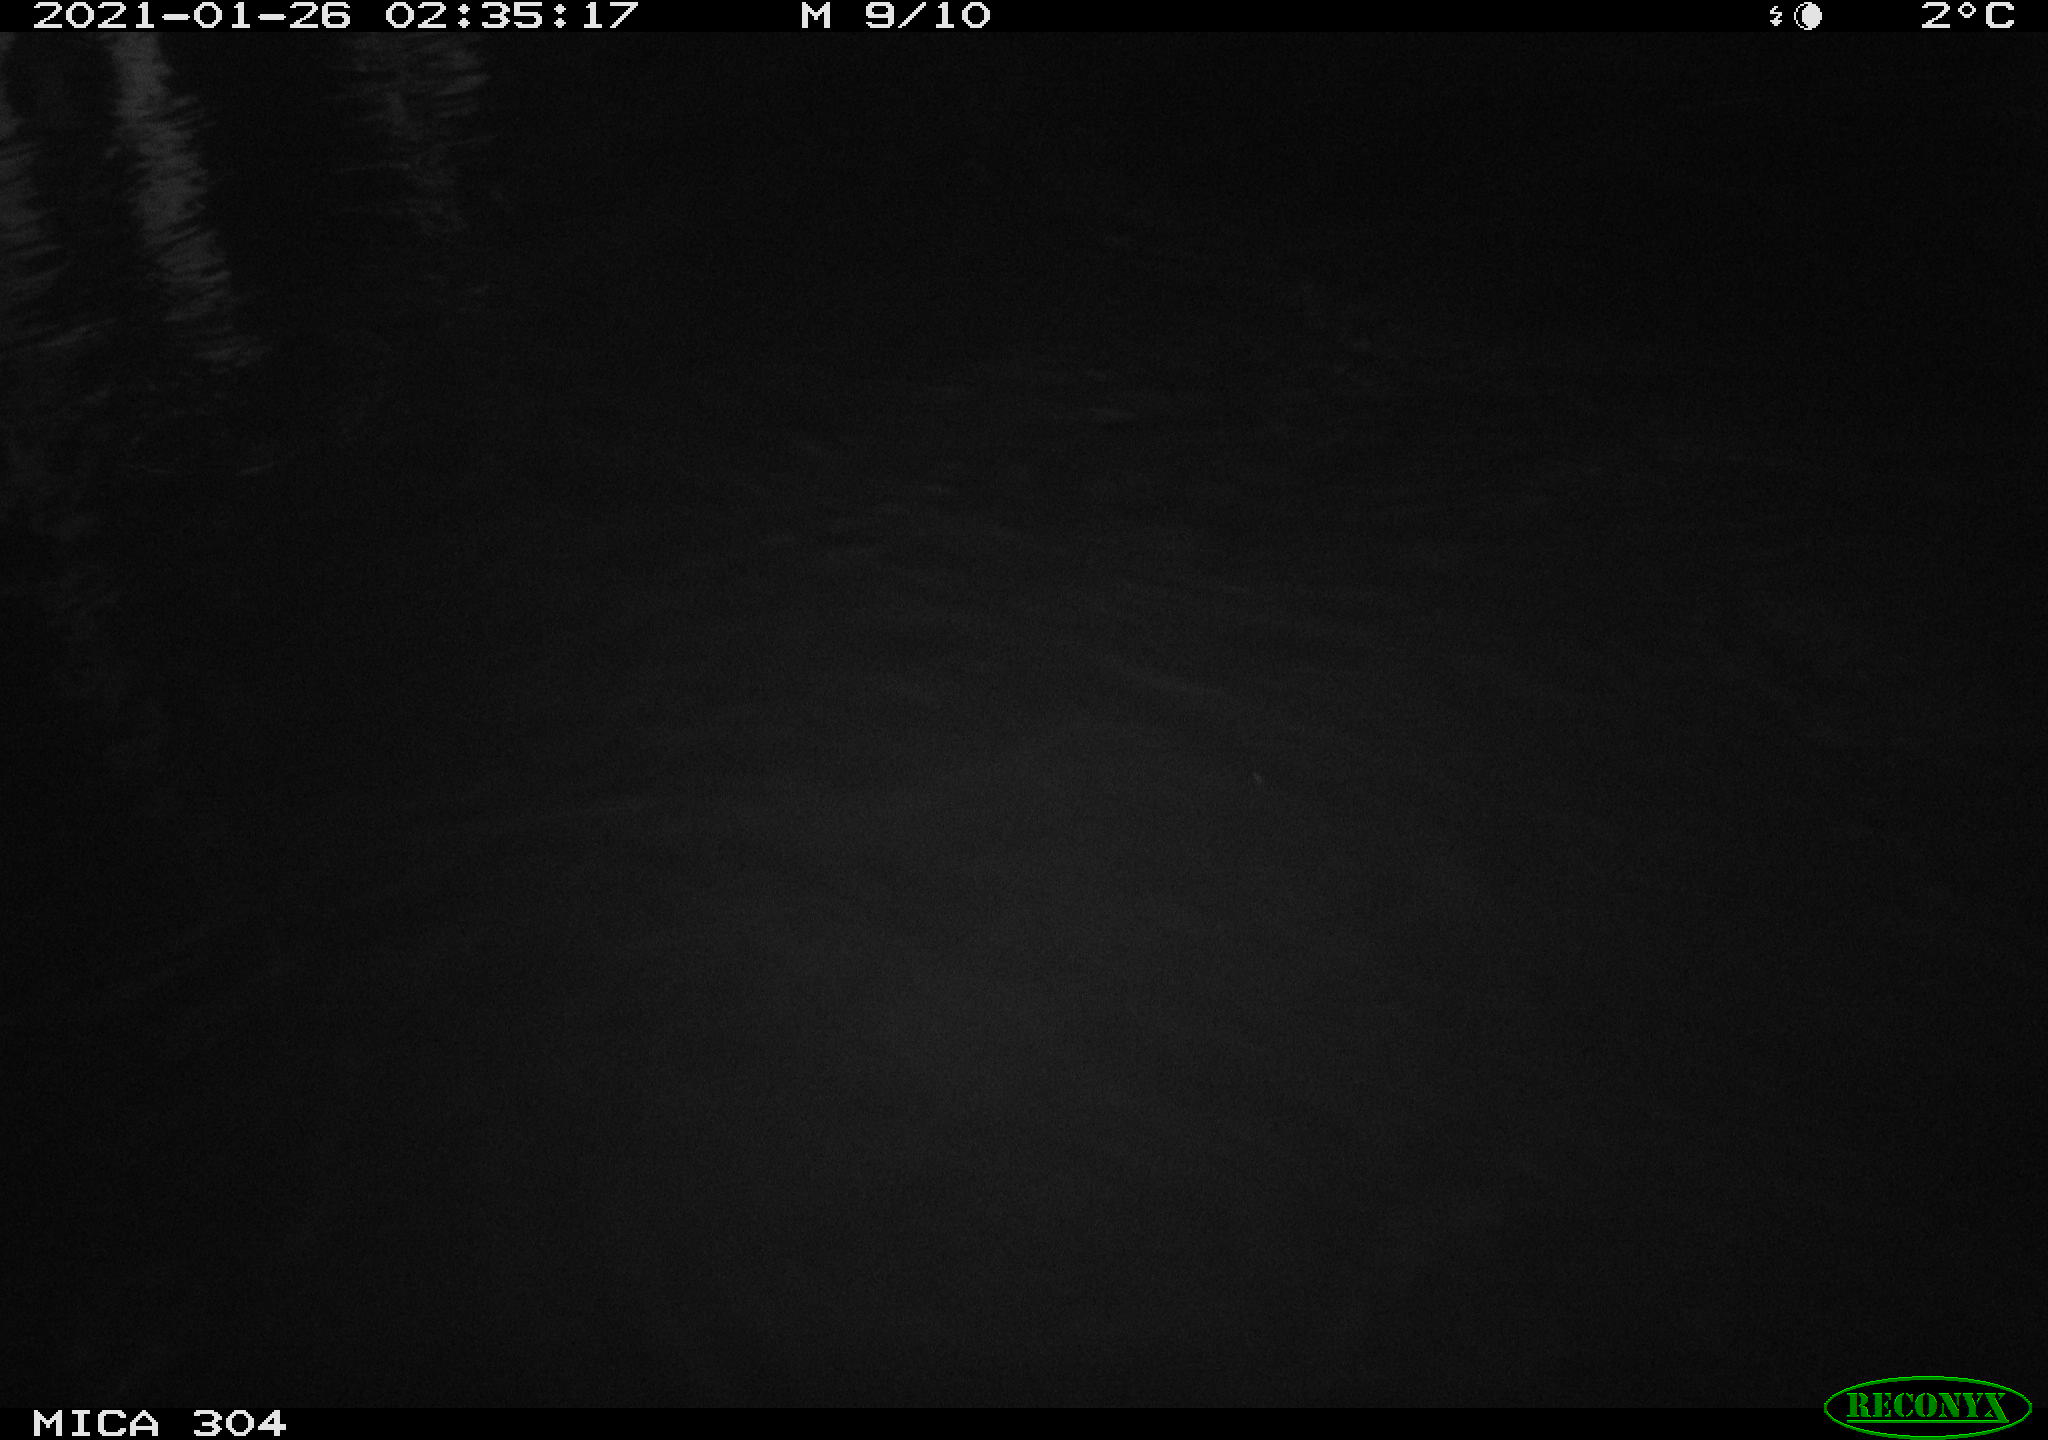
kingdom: Animalia
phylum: Chordata
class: Mammalia
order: Rodentia
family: Muridae
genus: Rattus
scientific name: Rattus norvegicus
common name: Brown rat
